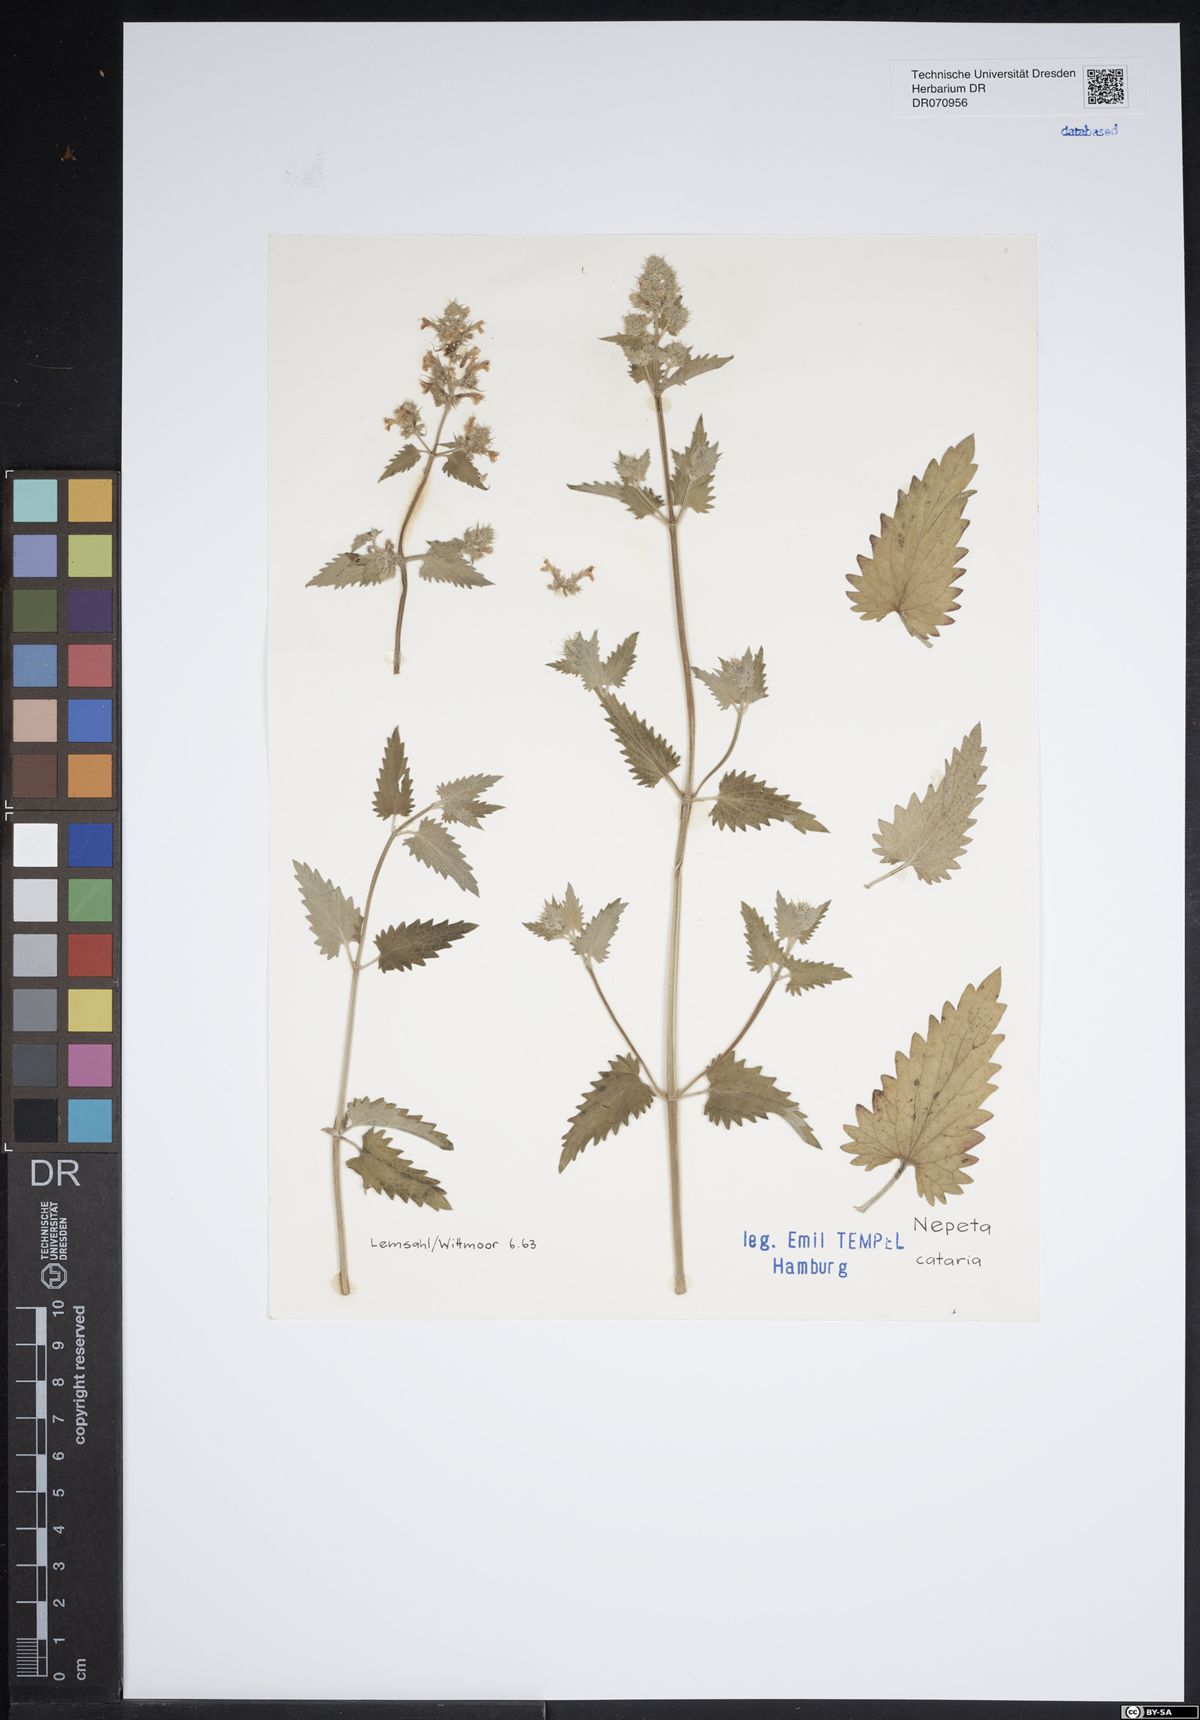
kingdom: Plantae
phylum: Tracheophyta
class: Magnoliopsida
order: Lamiales
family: Lamiaceae
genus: Nepeta
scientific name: Nepeta cataria
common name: Catnip
